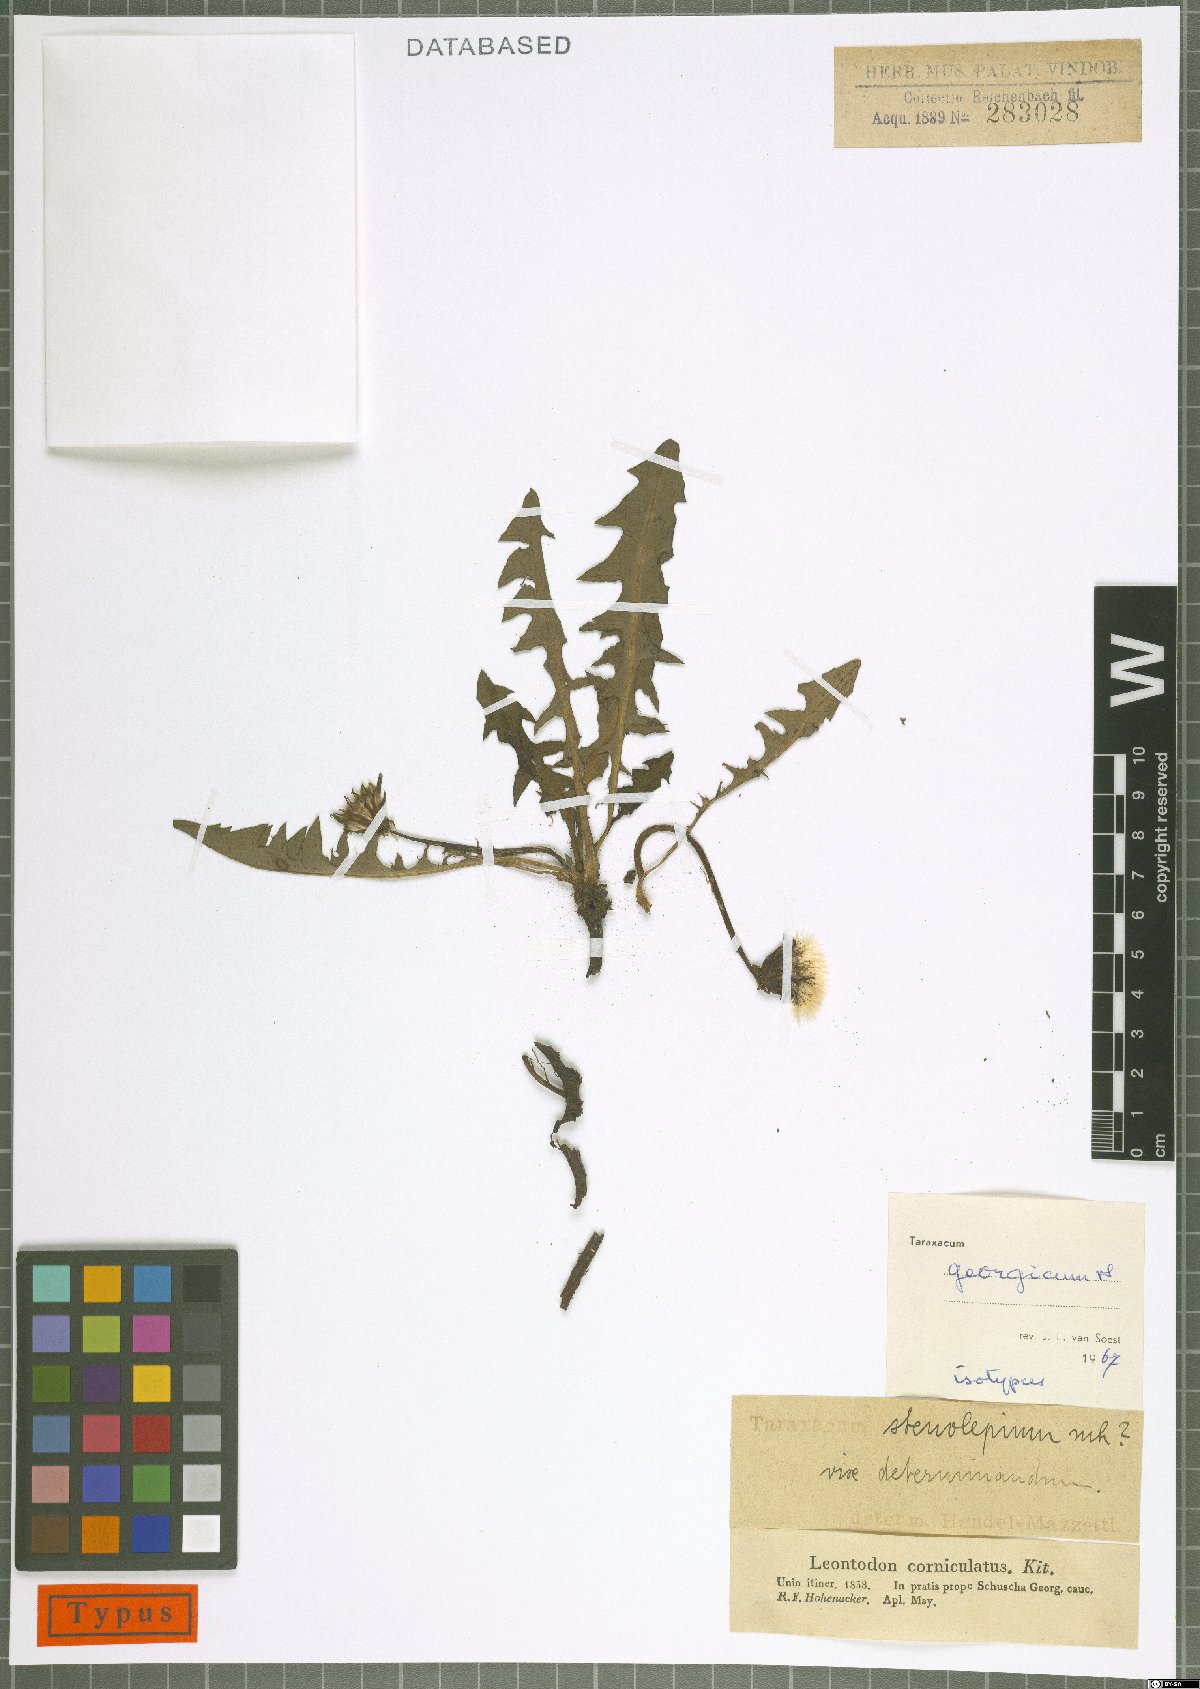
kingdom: Plantae
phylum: Tracheophyta
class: Magnoliopsida
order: Asterales
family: Asteraceae
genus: Taraxacum
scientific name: Taraxacum stenocephalum
